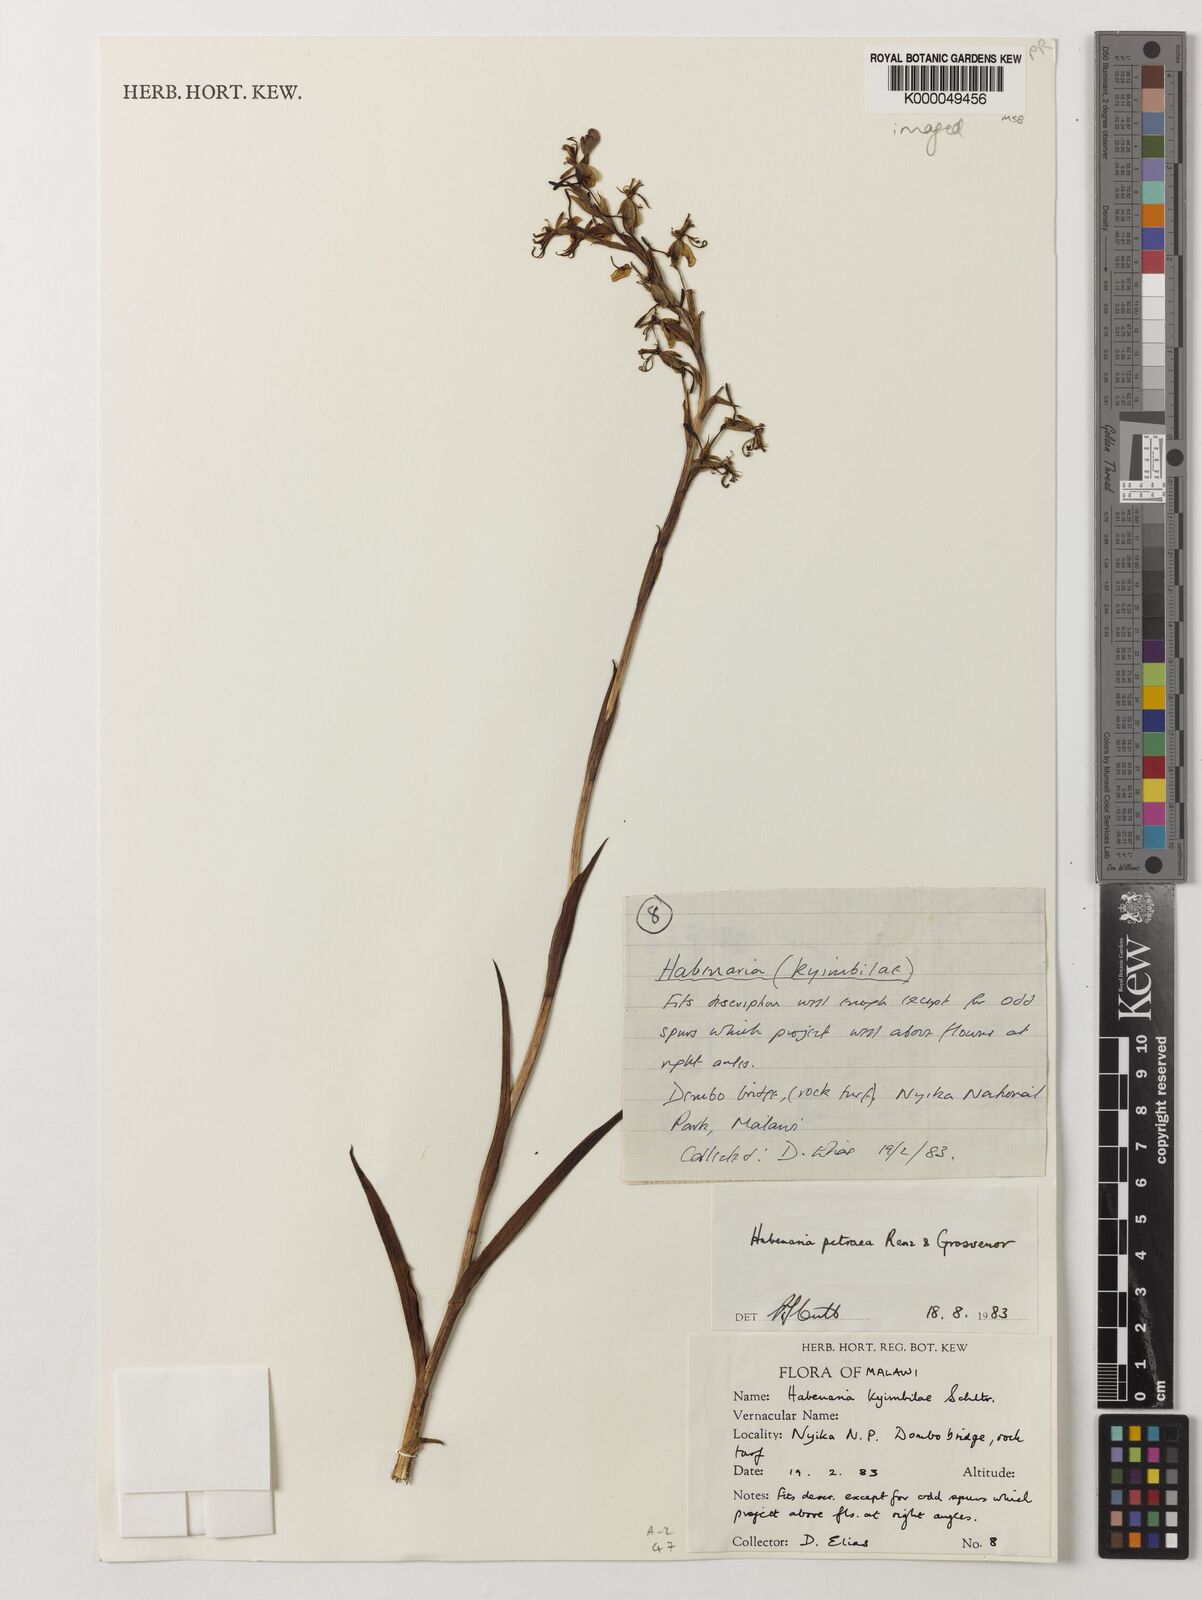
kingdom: Plantae
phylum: Tracheophyta
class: Liliopsida
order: Asparagales
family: Orchidaceae
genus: Habenaria
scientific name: Habenaria petraea
